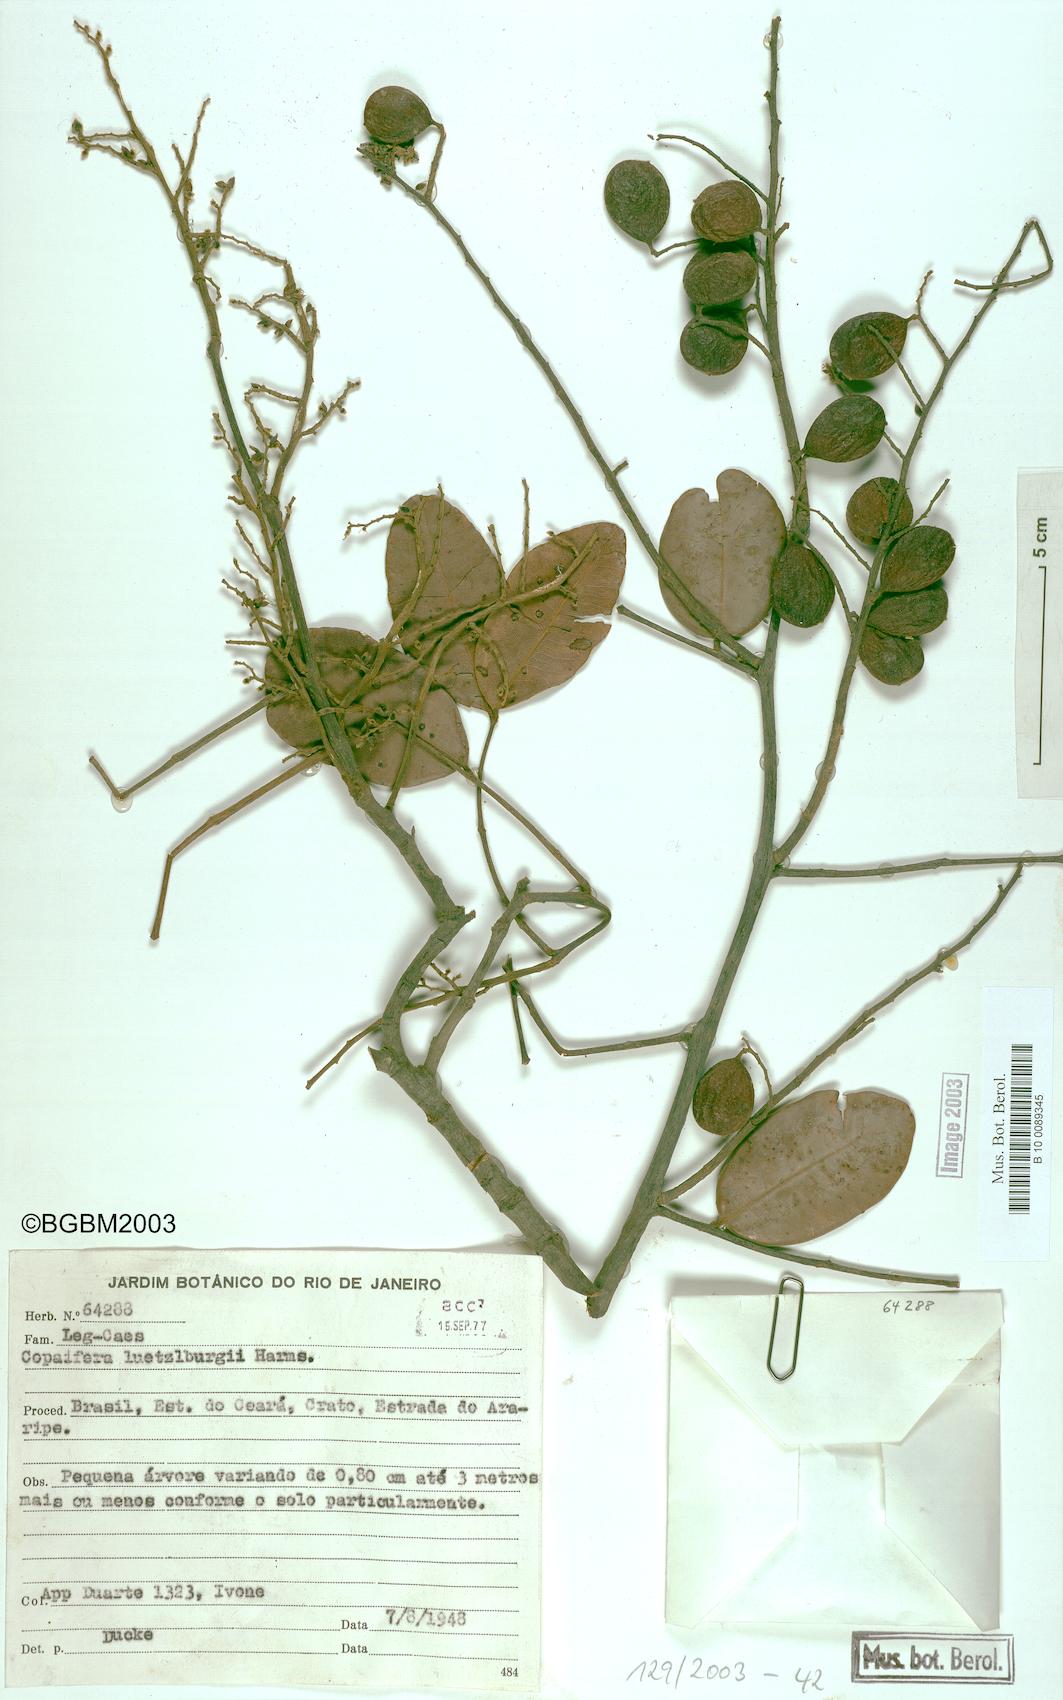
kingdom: Plantae
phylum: Tracheophyta
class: Magnoliopsida
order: Fabales
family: Fabaceae
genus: Copaifera
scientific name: Copaifera luetzelburgii
